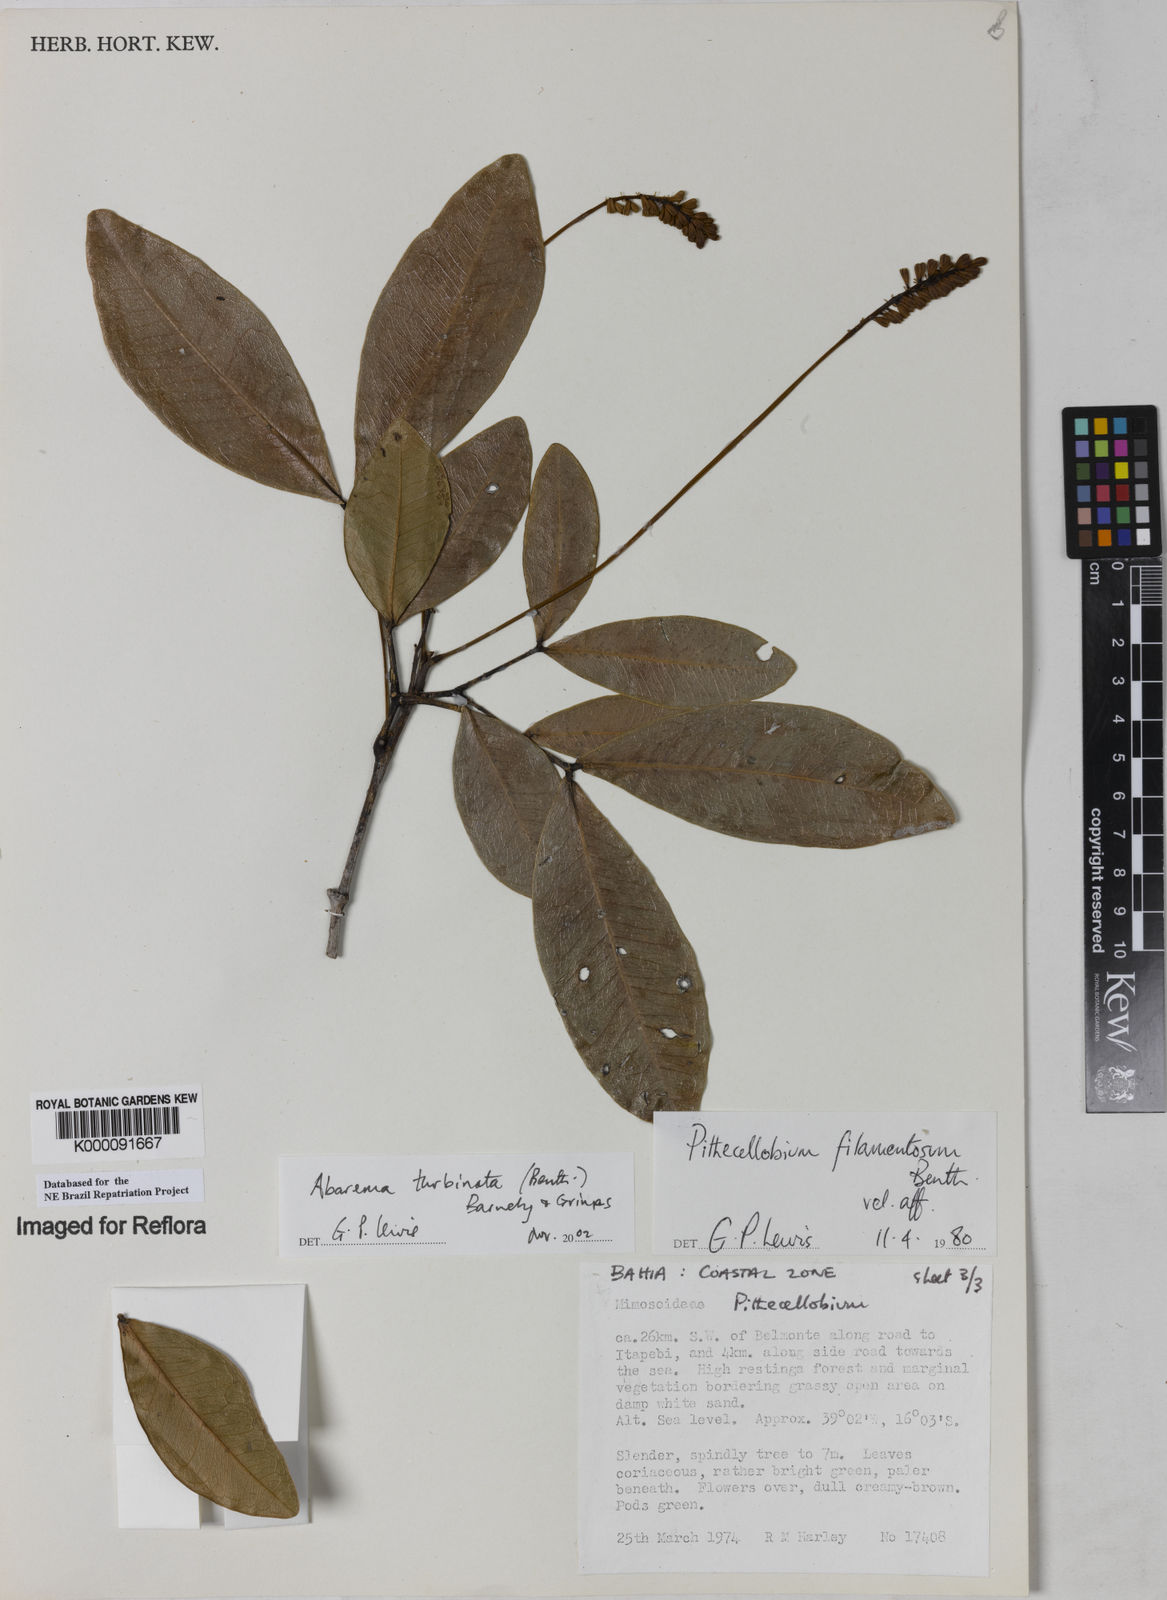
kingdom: Plantae
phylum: Tracheophyta
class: Magnoliopsida
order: Fabales
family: Fabaceae
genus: Jupunba
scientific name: Jupunba turbinata
